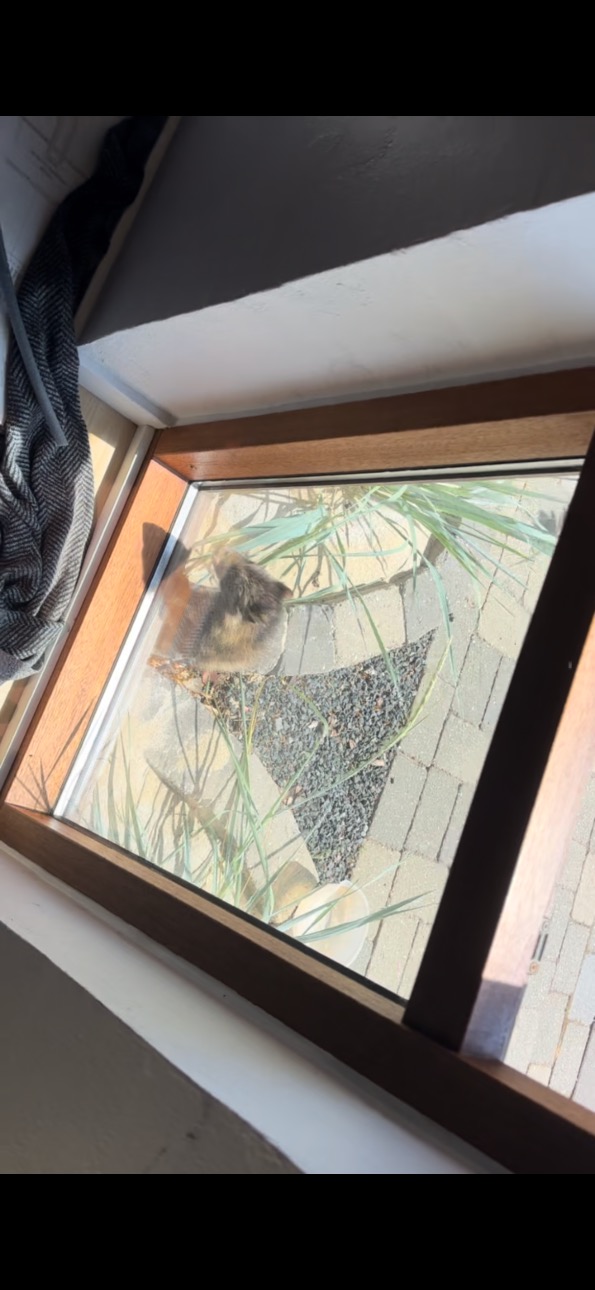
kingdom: Animalia
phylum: Chordata
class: Mammalia
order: Carnivora
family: Canidae
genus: Nyctereutes
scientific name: Nyctereutes procyonoides
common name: Mårhund
